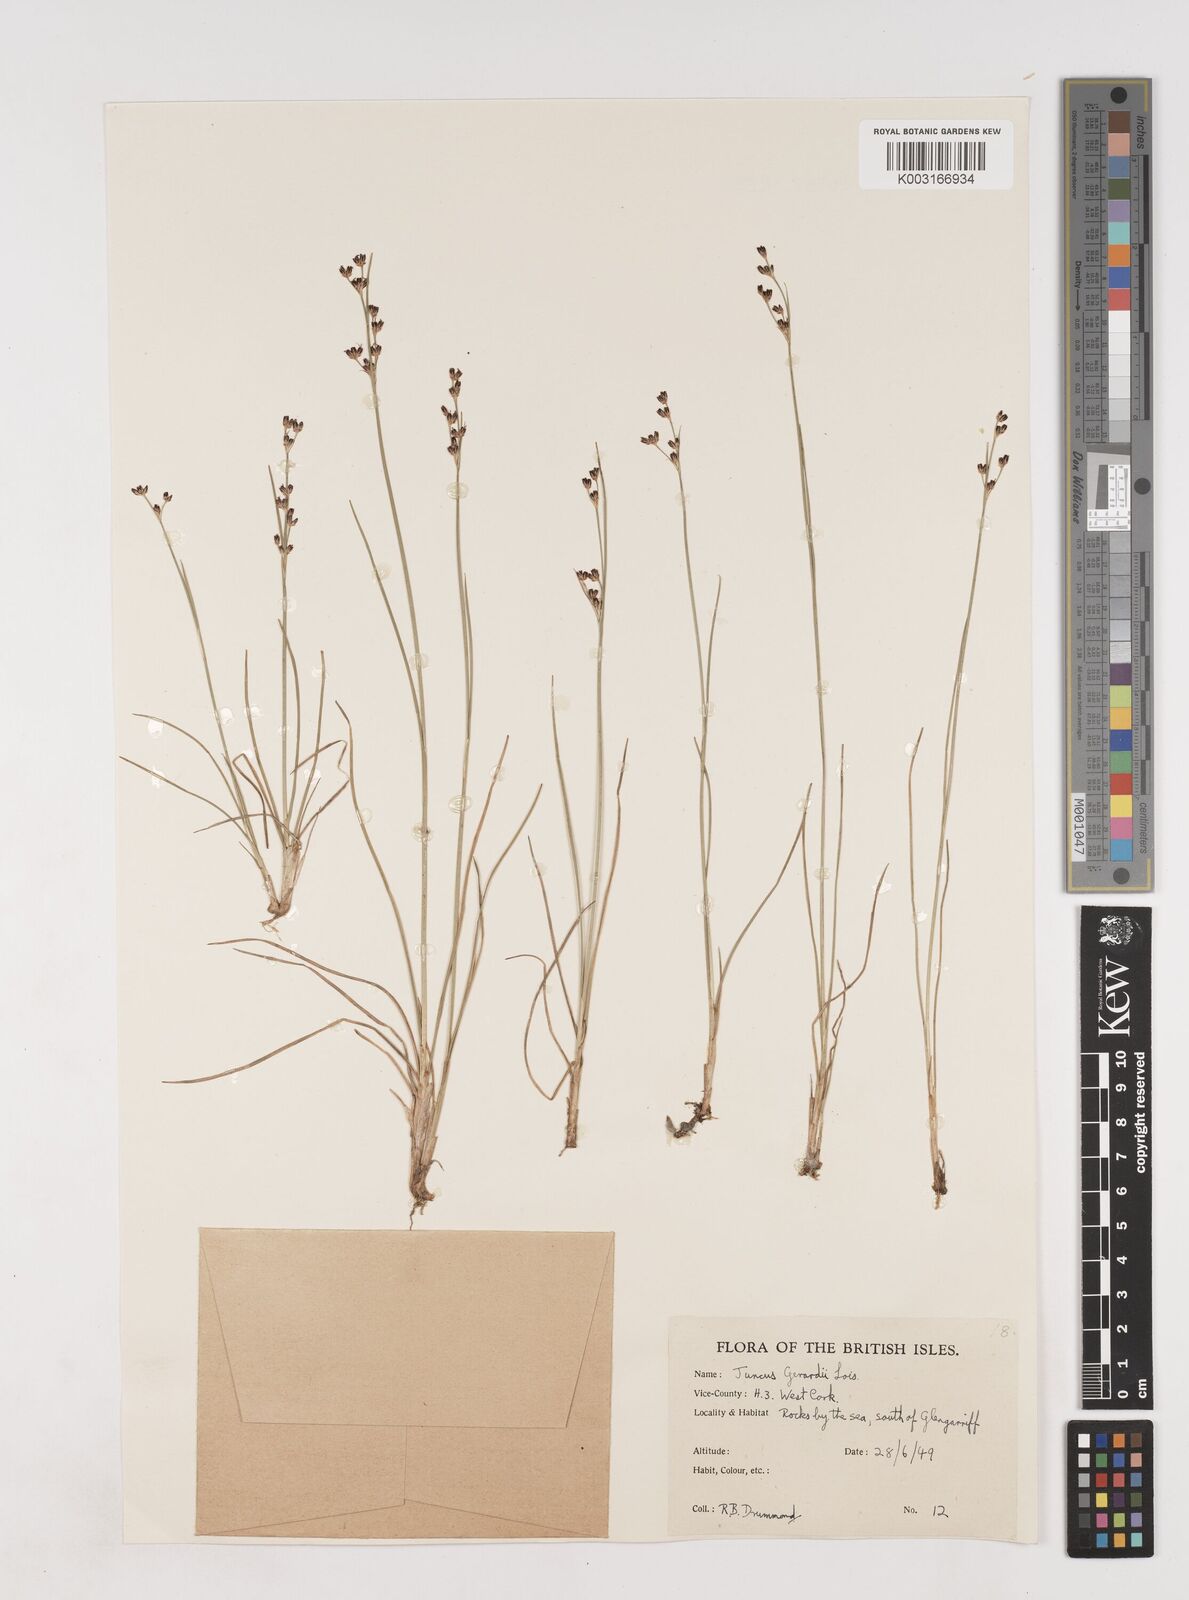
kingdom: Plantae
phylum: Tracheophyta
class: Liliopsida
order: Poales
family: Juncaceae
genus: Juncus
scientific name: Juncus gerardi
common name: Saltmarsh rush
